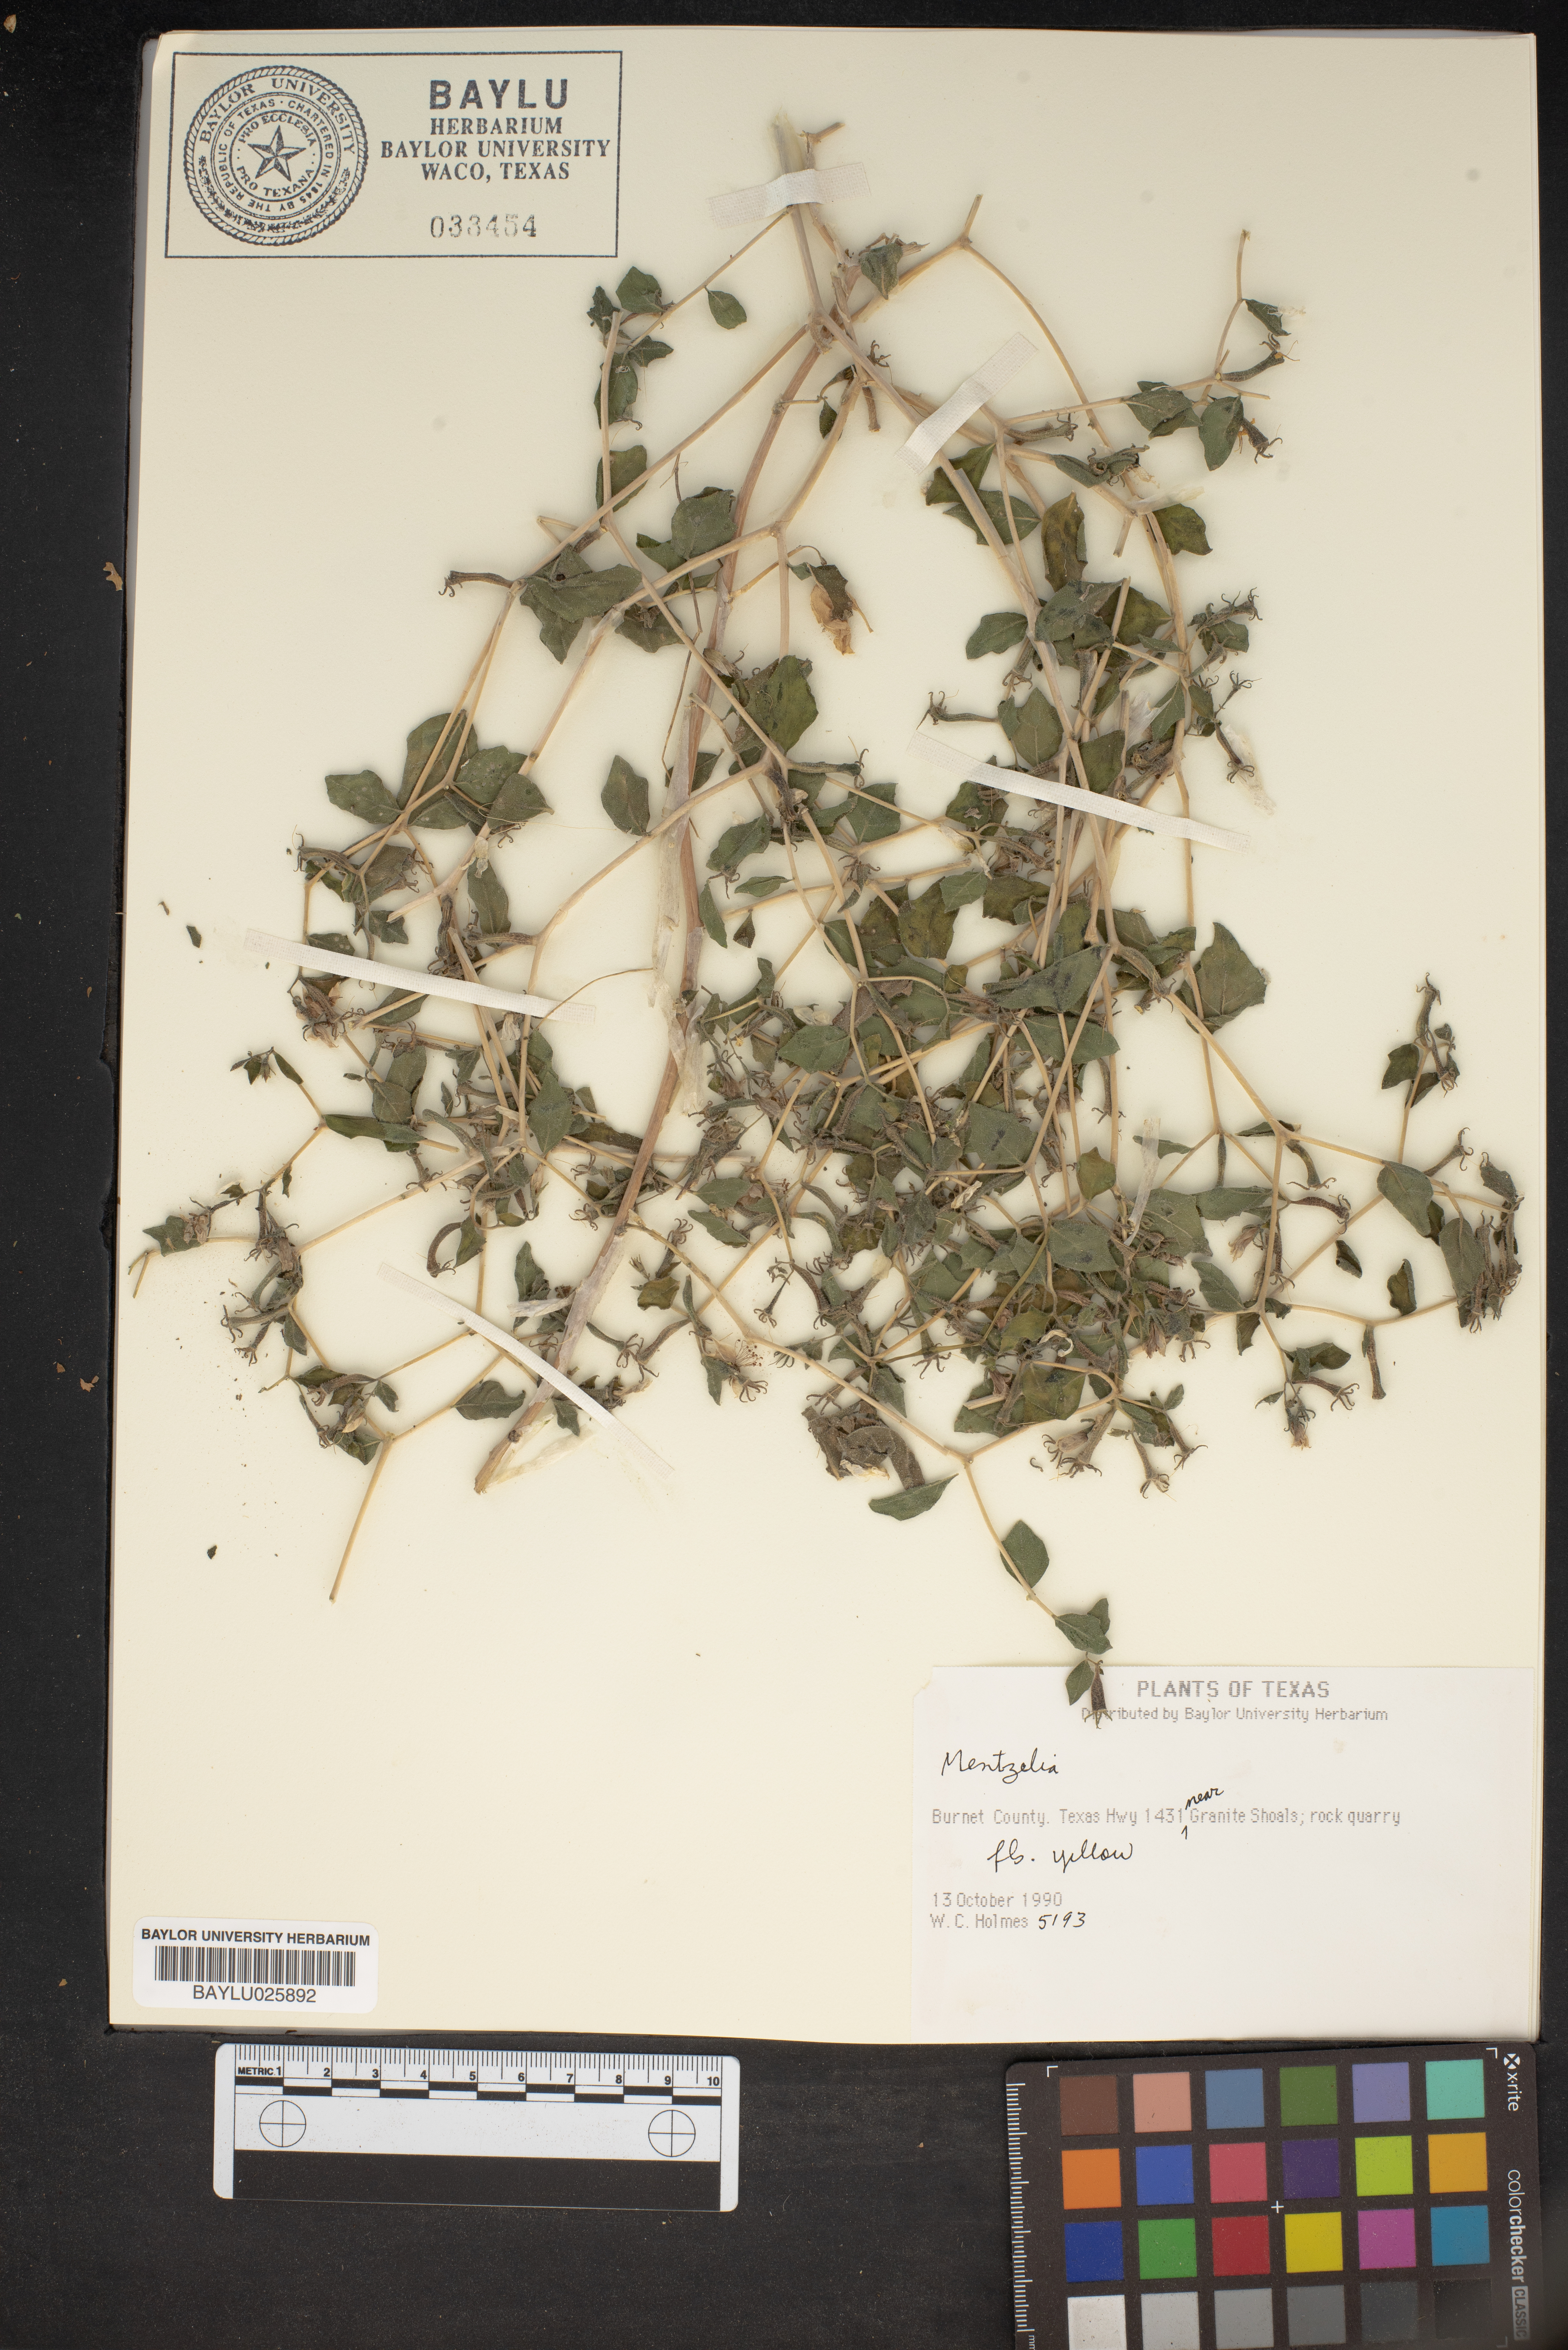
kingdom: Plantae
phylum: Tracheophyta
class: Magnoliopsida
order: Cornales
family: Loasaceae
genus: Mentzelia
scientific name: Mentzelia
